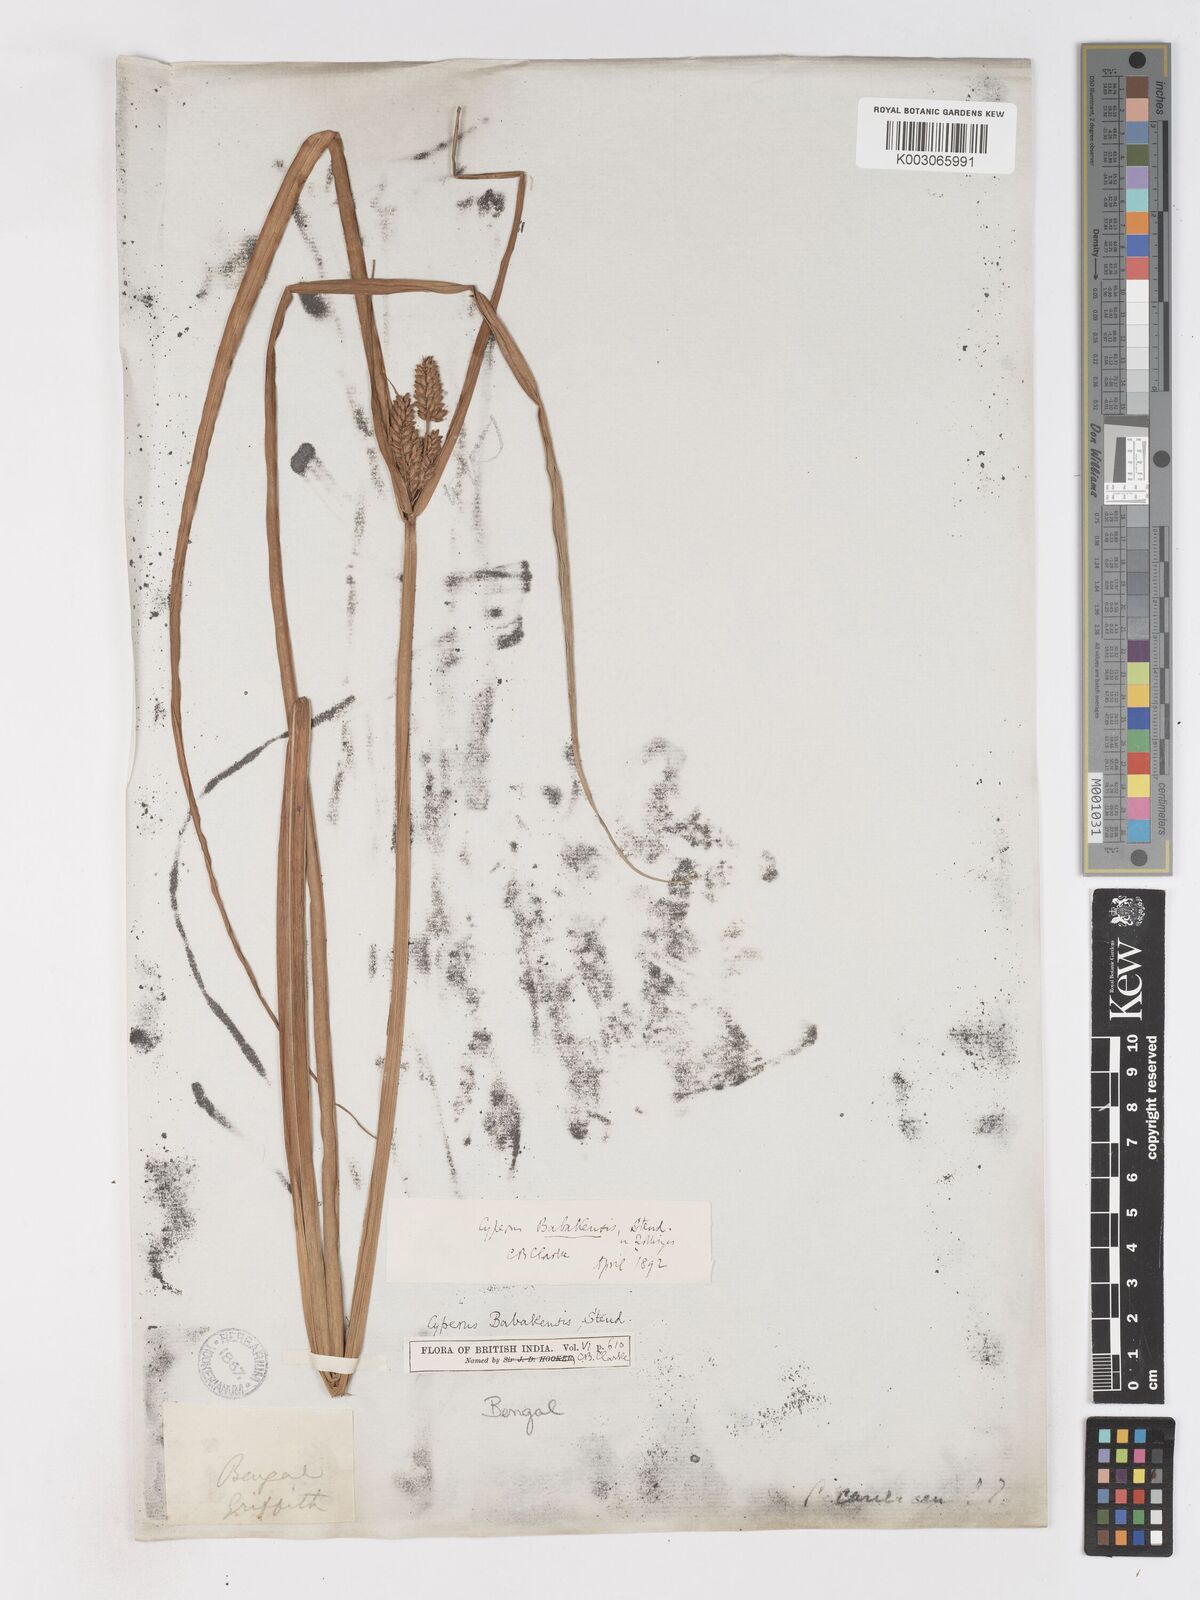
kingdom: Plantae
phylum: Tracheophyta
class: Liliopsida
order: Poales
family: Cyperaceae
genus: Cyperus
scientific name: Cyperus babakan
